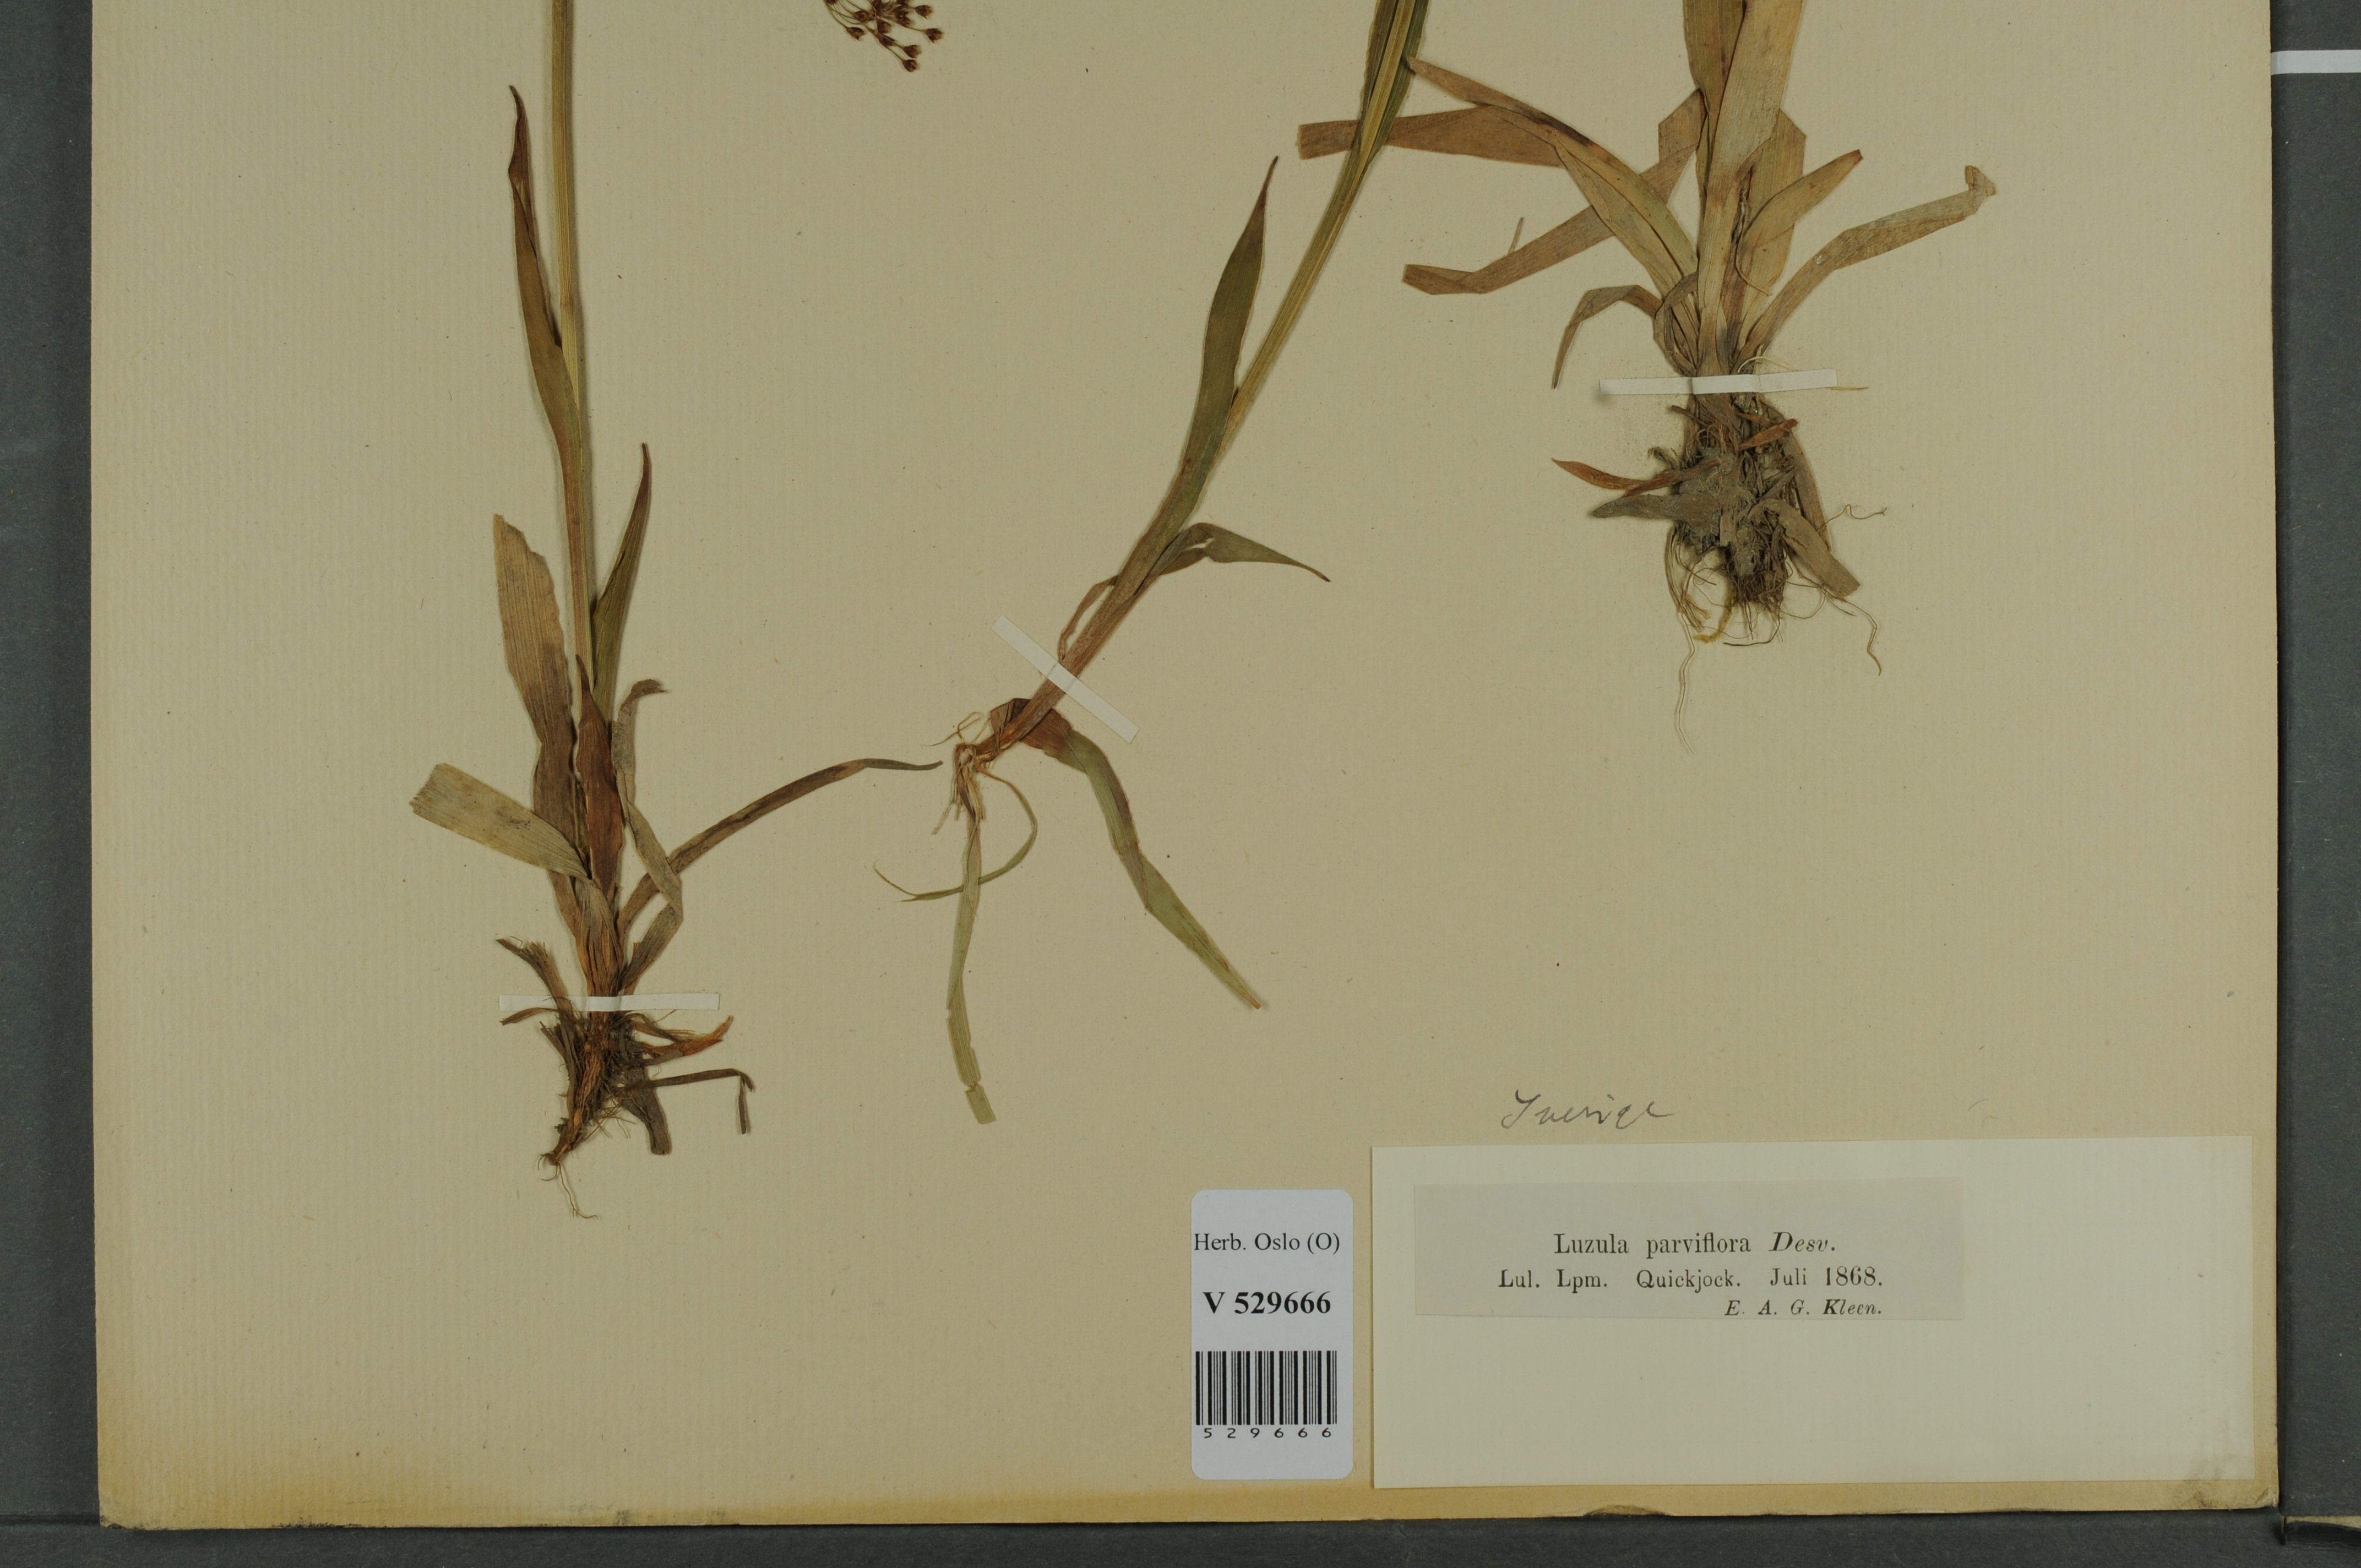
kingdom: Plantae
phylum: Tracheophyta
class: Liliopsida
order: Poales
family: Juncaceae
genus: Luzula
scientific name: Luzula parviflora
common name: Millet woodrush
